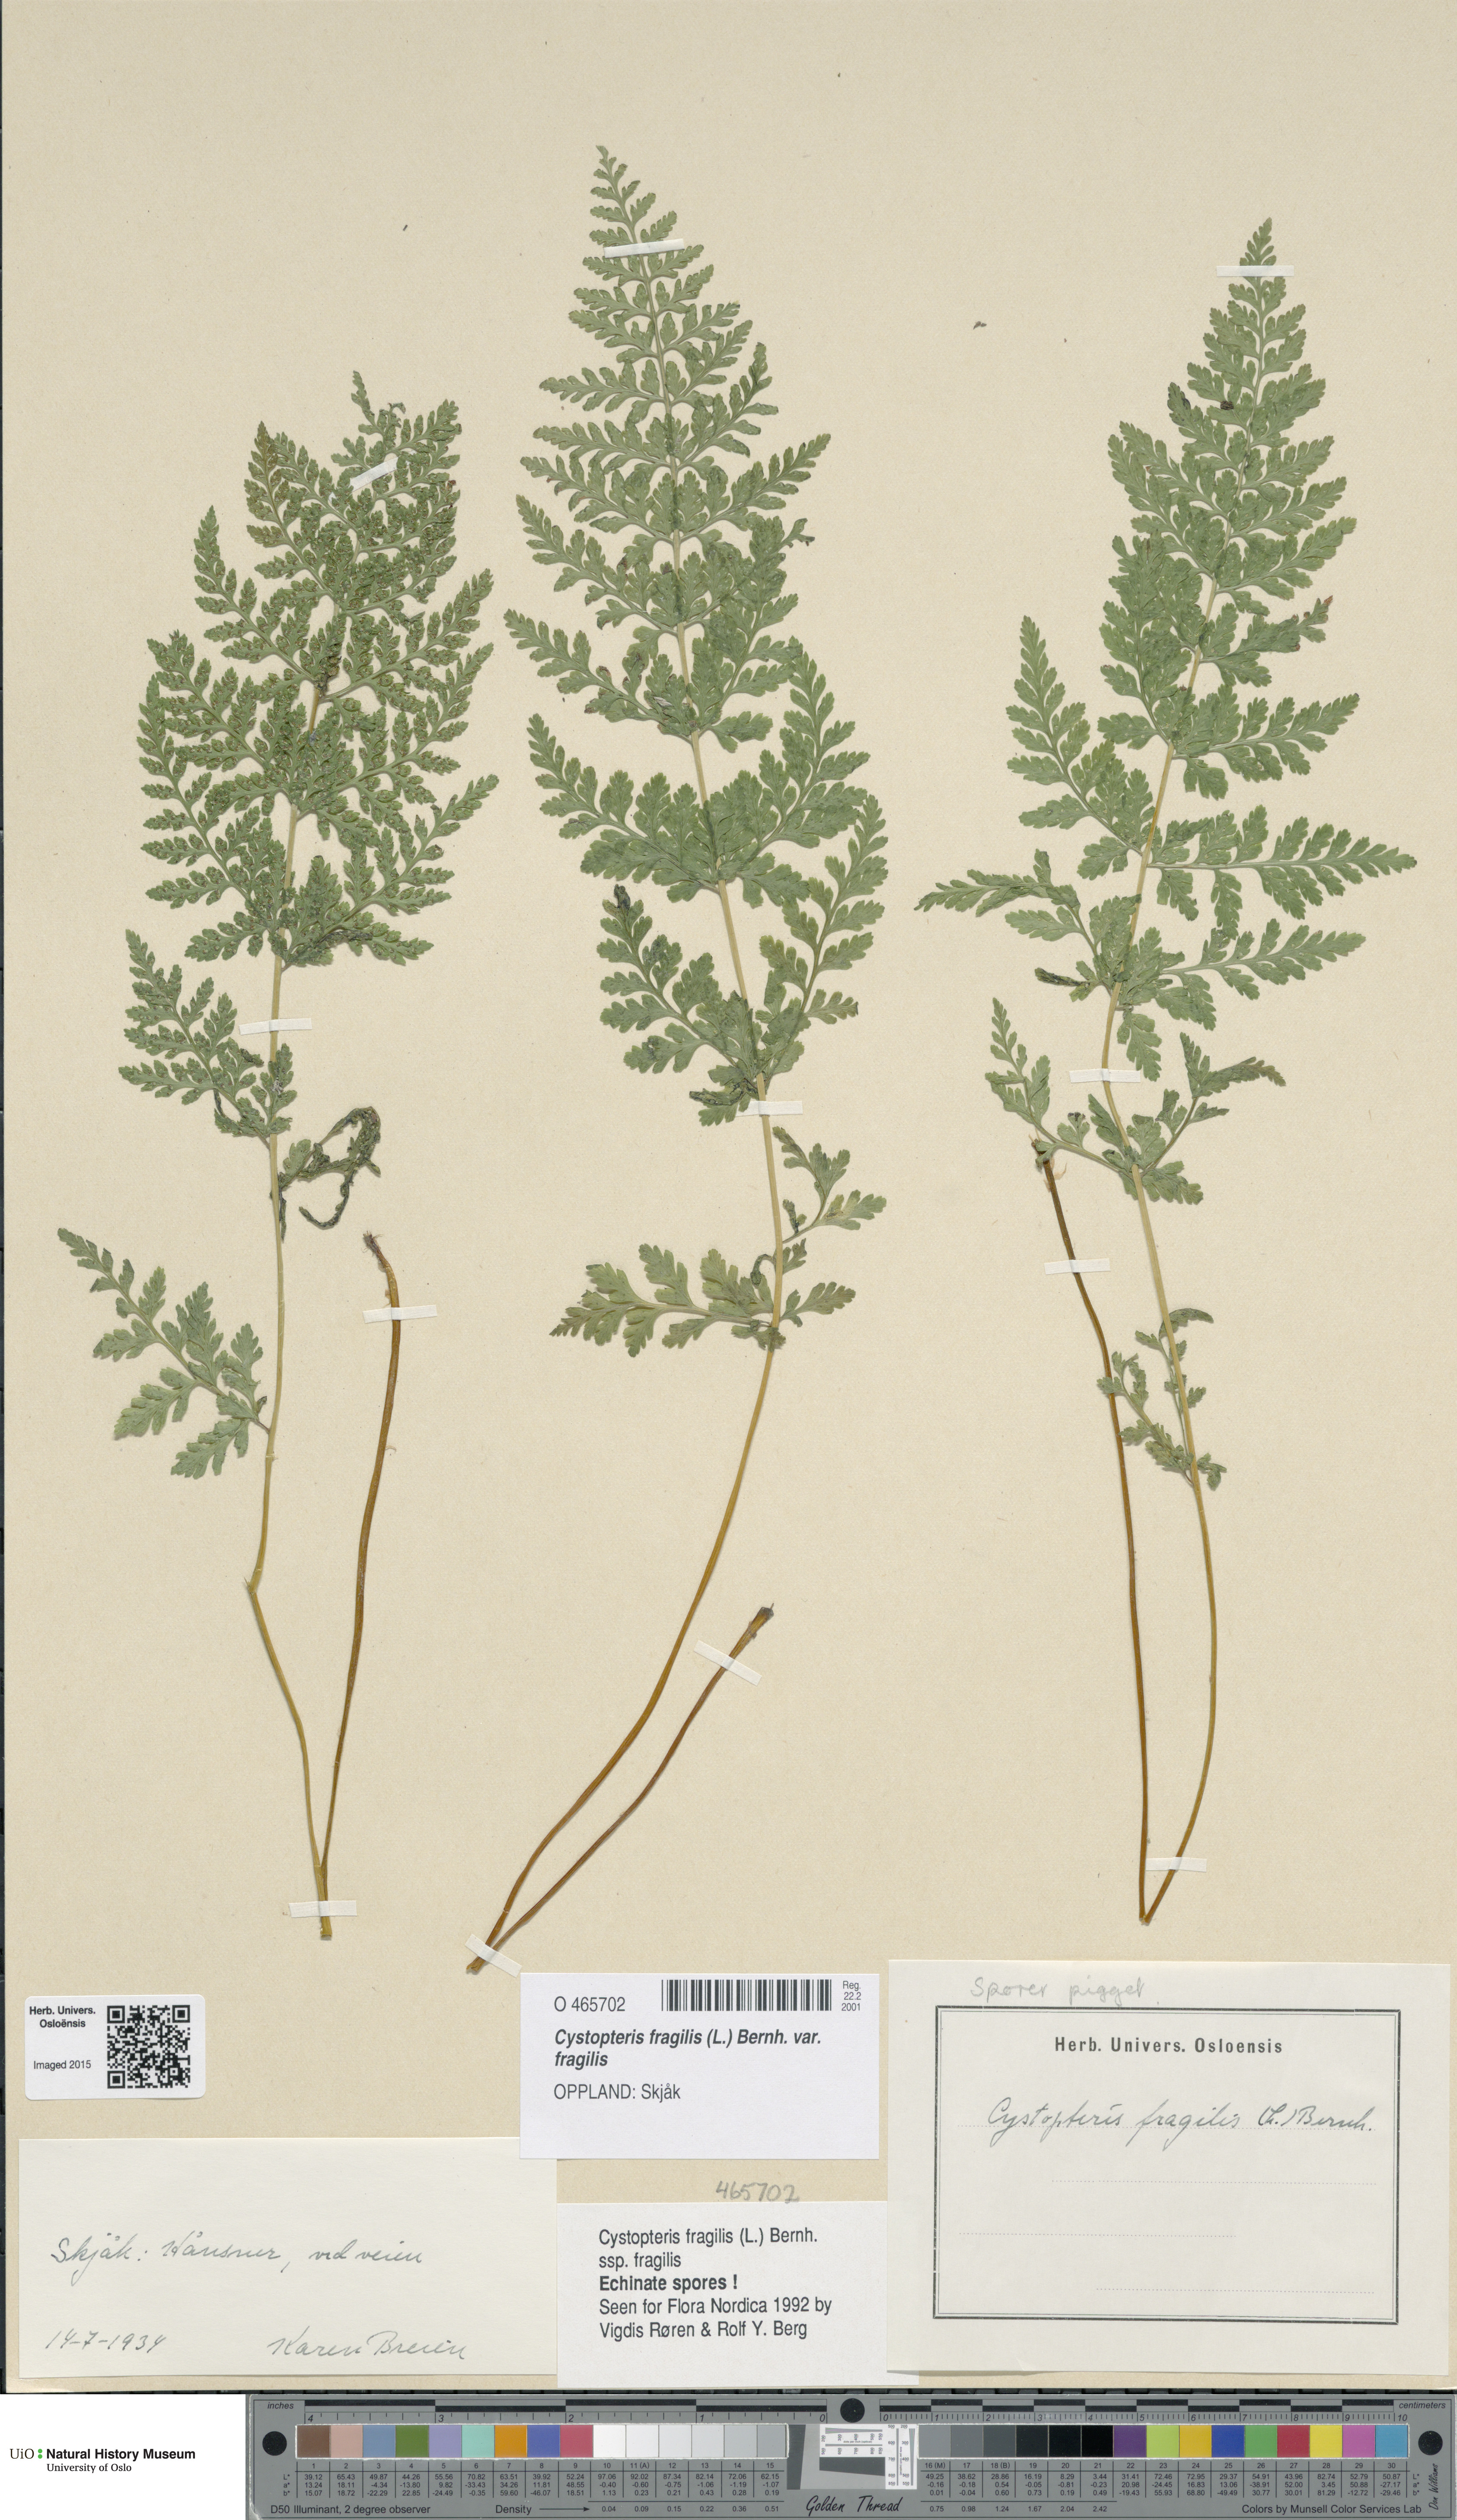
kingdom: Plantae
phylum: Tracheophyta
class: Polypodiopsida
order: Polypodiales
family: Cystopteridaceae
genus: Cystopteris
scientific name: Cystopteris fragilis
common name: Brittle bladder fern
